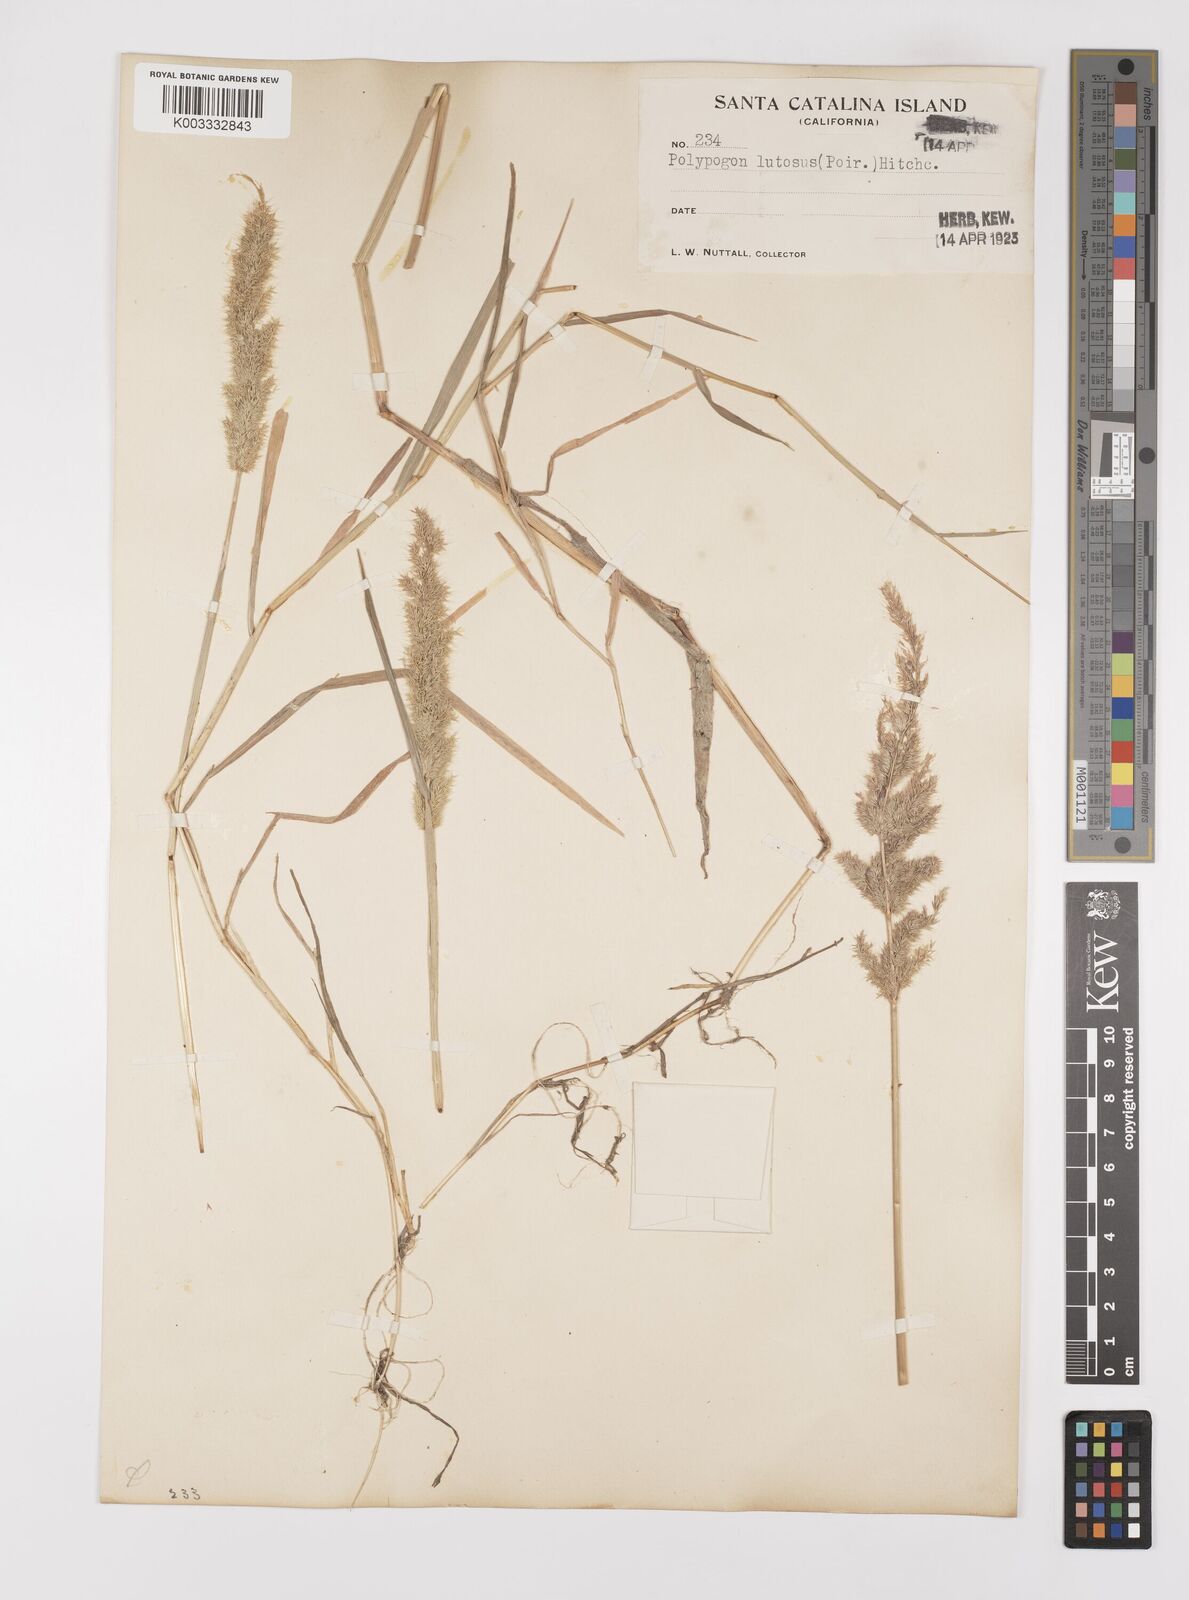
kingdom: Plantae
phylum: Tracheophyta
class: Liliopsida
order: Poales
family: Poaceae
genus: Polypogon
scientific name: Polypogon interruptus
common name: Ditch polypogon
